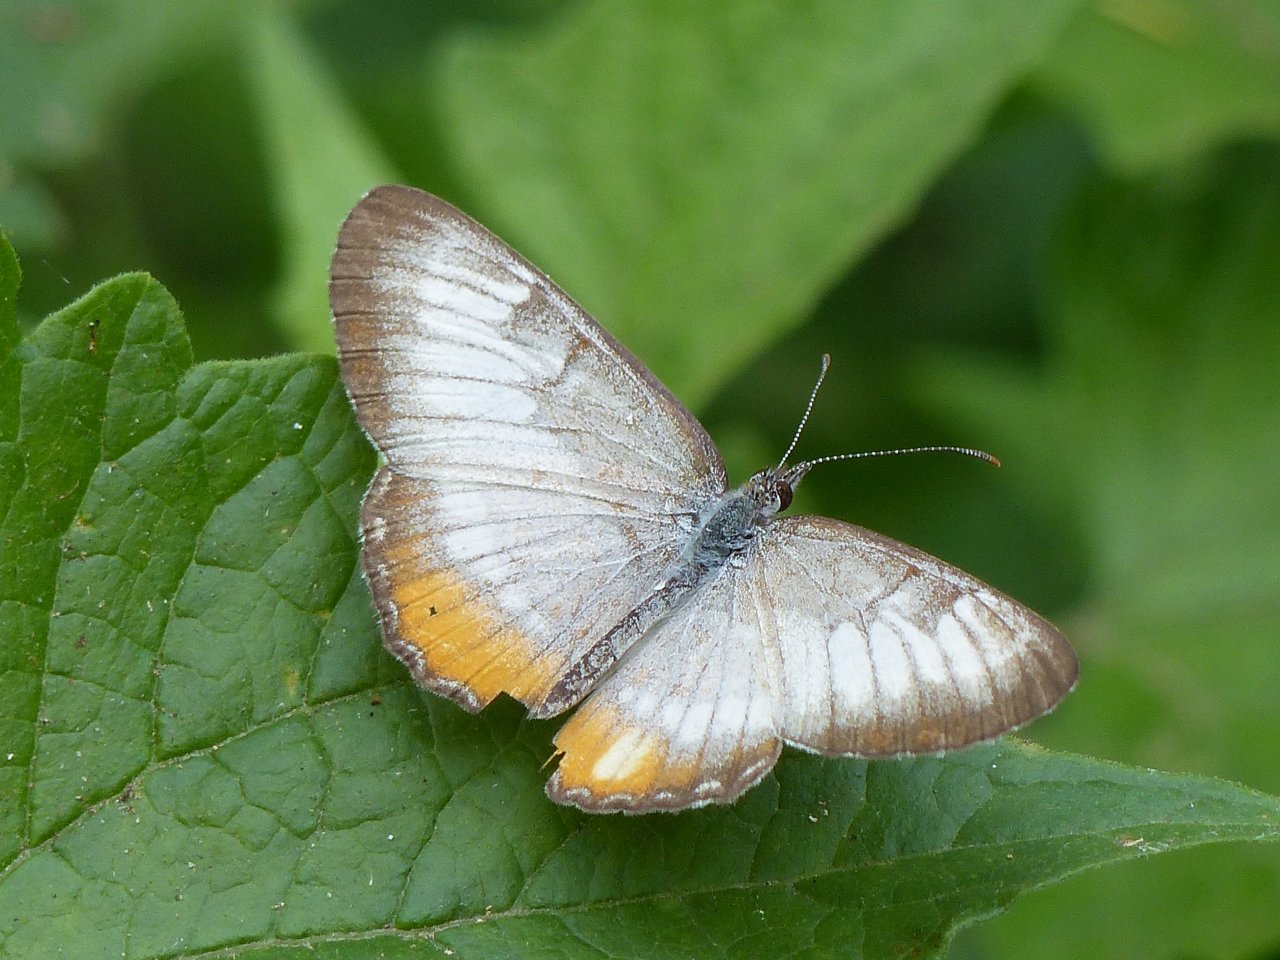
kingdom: Animalia
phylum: Arthropoda
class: Insecta
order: Lepidoptera
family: Nymphalidae
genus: Mestra
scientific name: Mestra amymone
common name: Common Mestra
